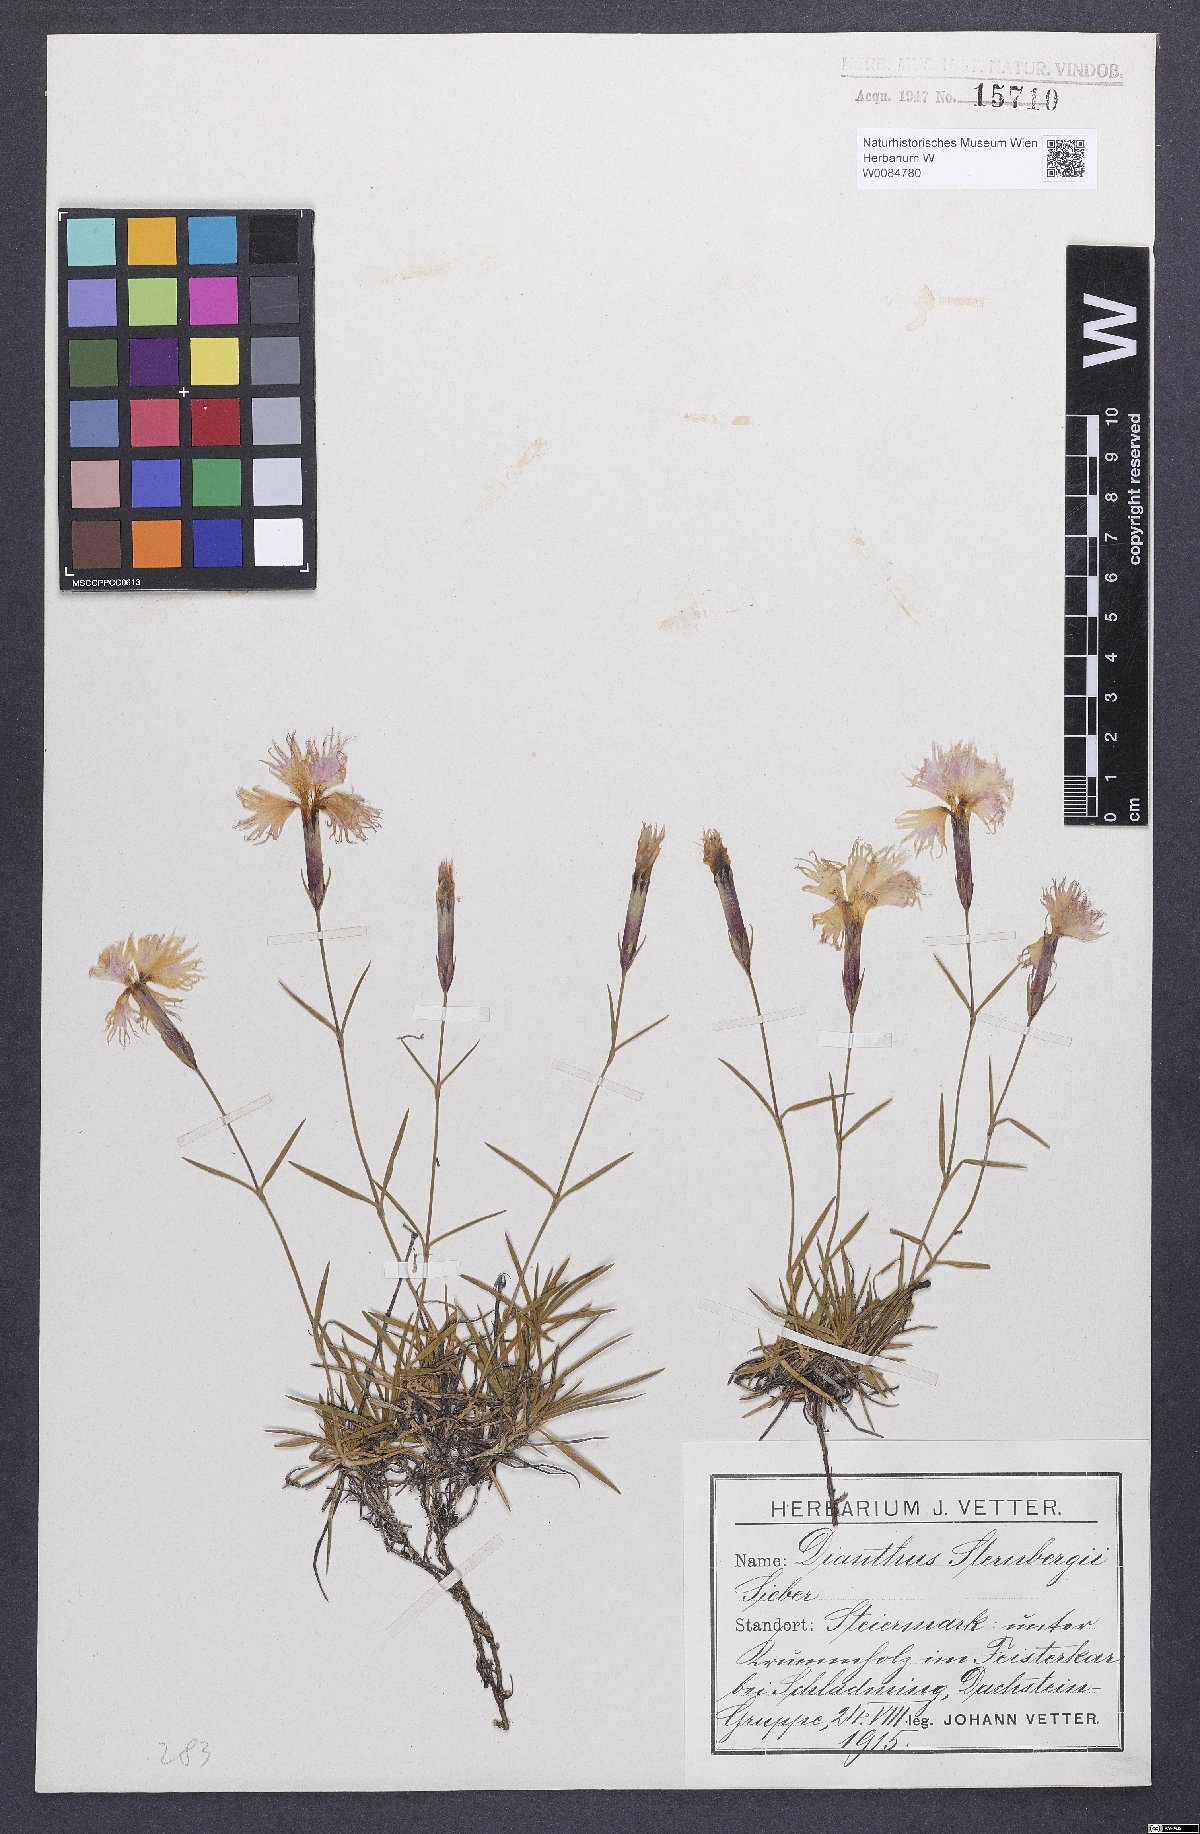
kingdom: Plantae
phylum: Tracheophyta
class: Magnoliopsida
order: Caryophyllales
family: Caryophyllaceae
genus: Dianthus
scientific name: Dianthus monspessulanus
